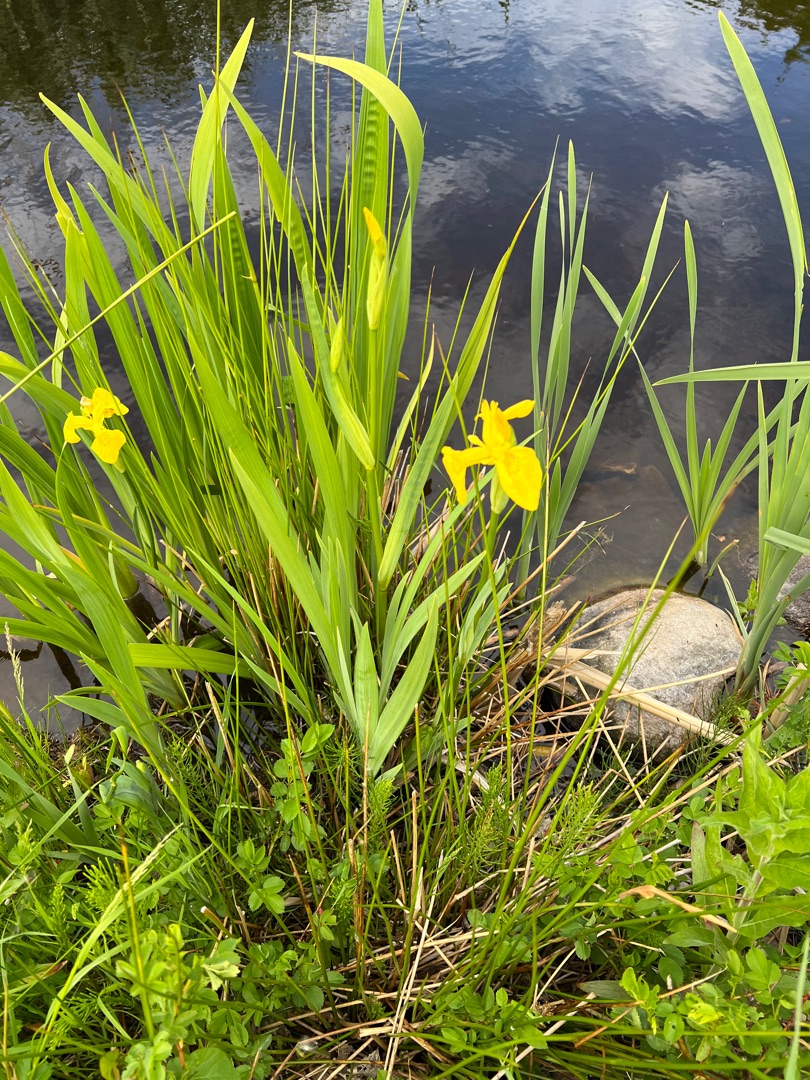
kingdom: Plantae
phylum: Tracheophyta
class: Liliopsida
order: Asparagales
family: Iridaceae
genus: Iris
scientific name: Iris pseudacorus
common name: Gul iris
